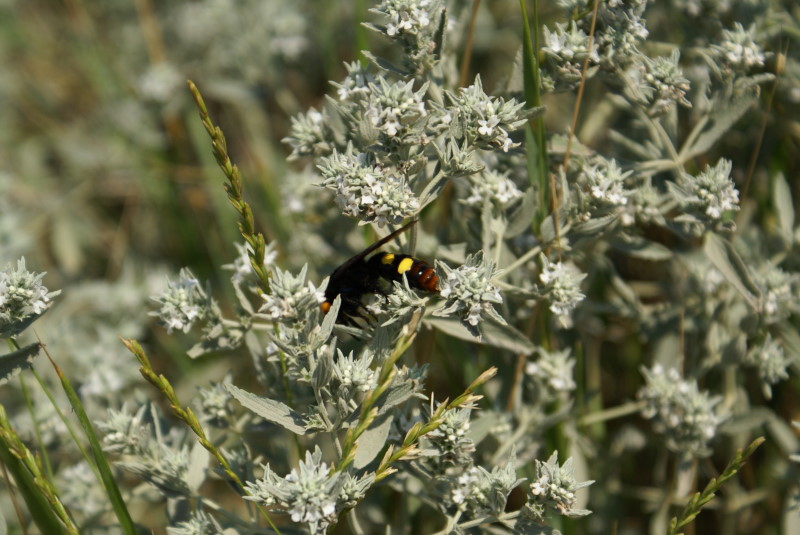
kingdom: Plantae
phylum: Tracheophyta
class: Magnoliopsida
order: Lamiales
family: Lamiaceae
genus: Marrubium
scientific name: Marrubium peregrinum
